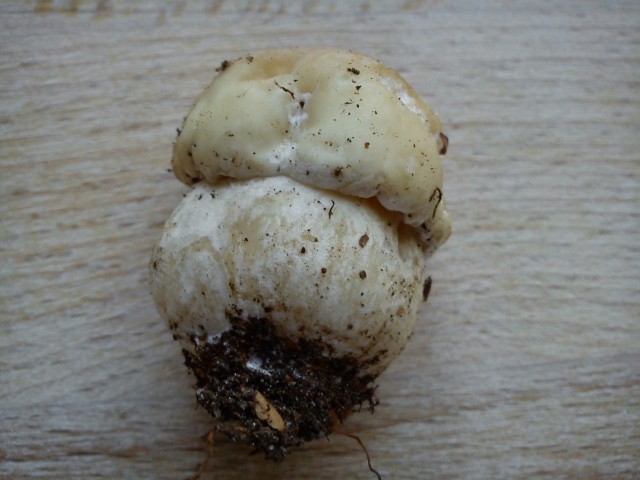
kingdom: Fungi
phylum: Basidiomycota
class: Agaricomycetes
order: Boletales
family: Boletaceae
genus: Boletus
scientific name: Boletus reticulatus
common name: sommer-rørhat
